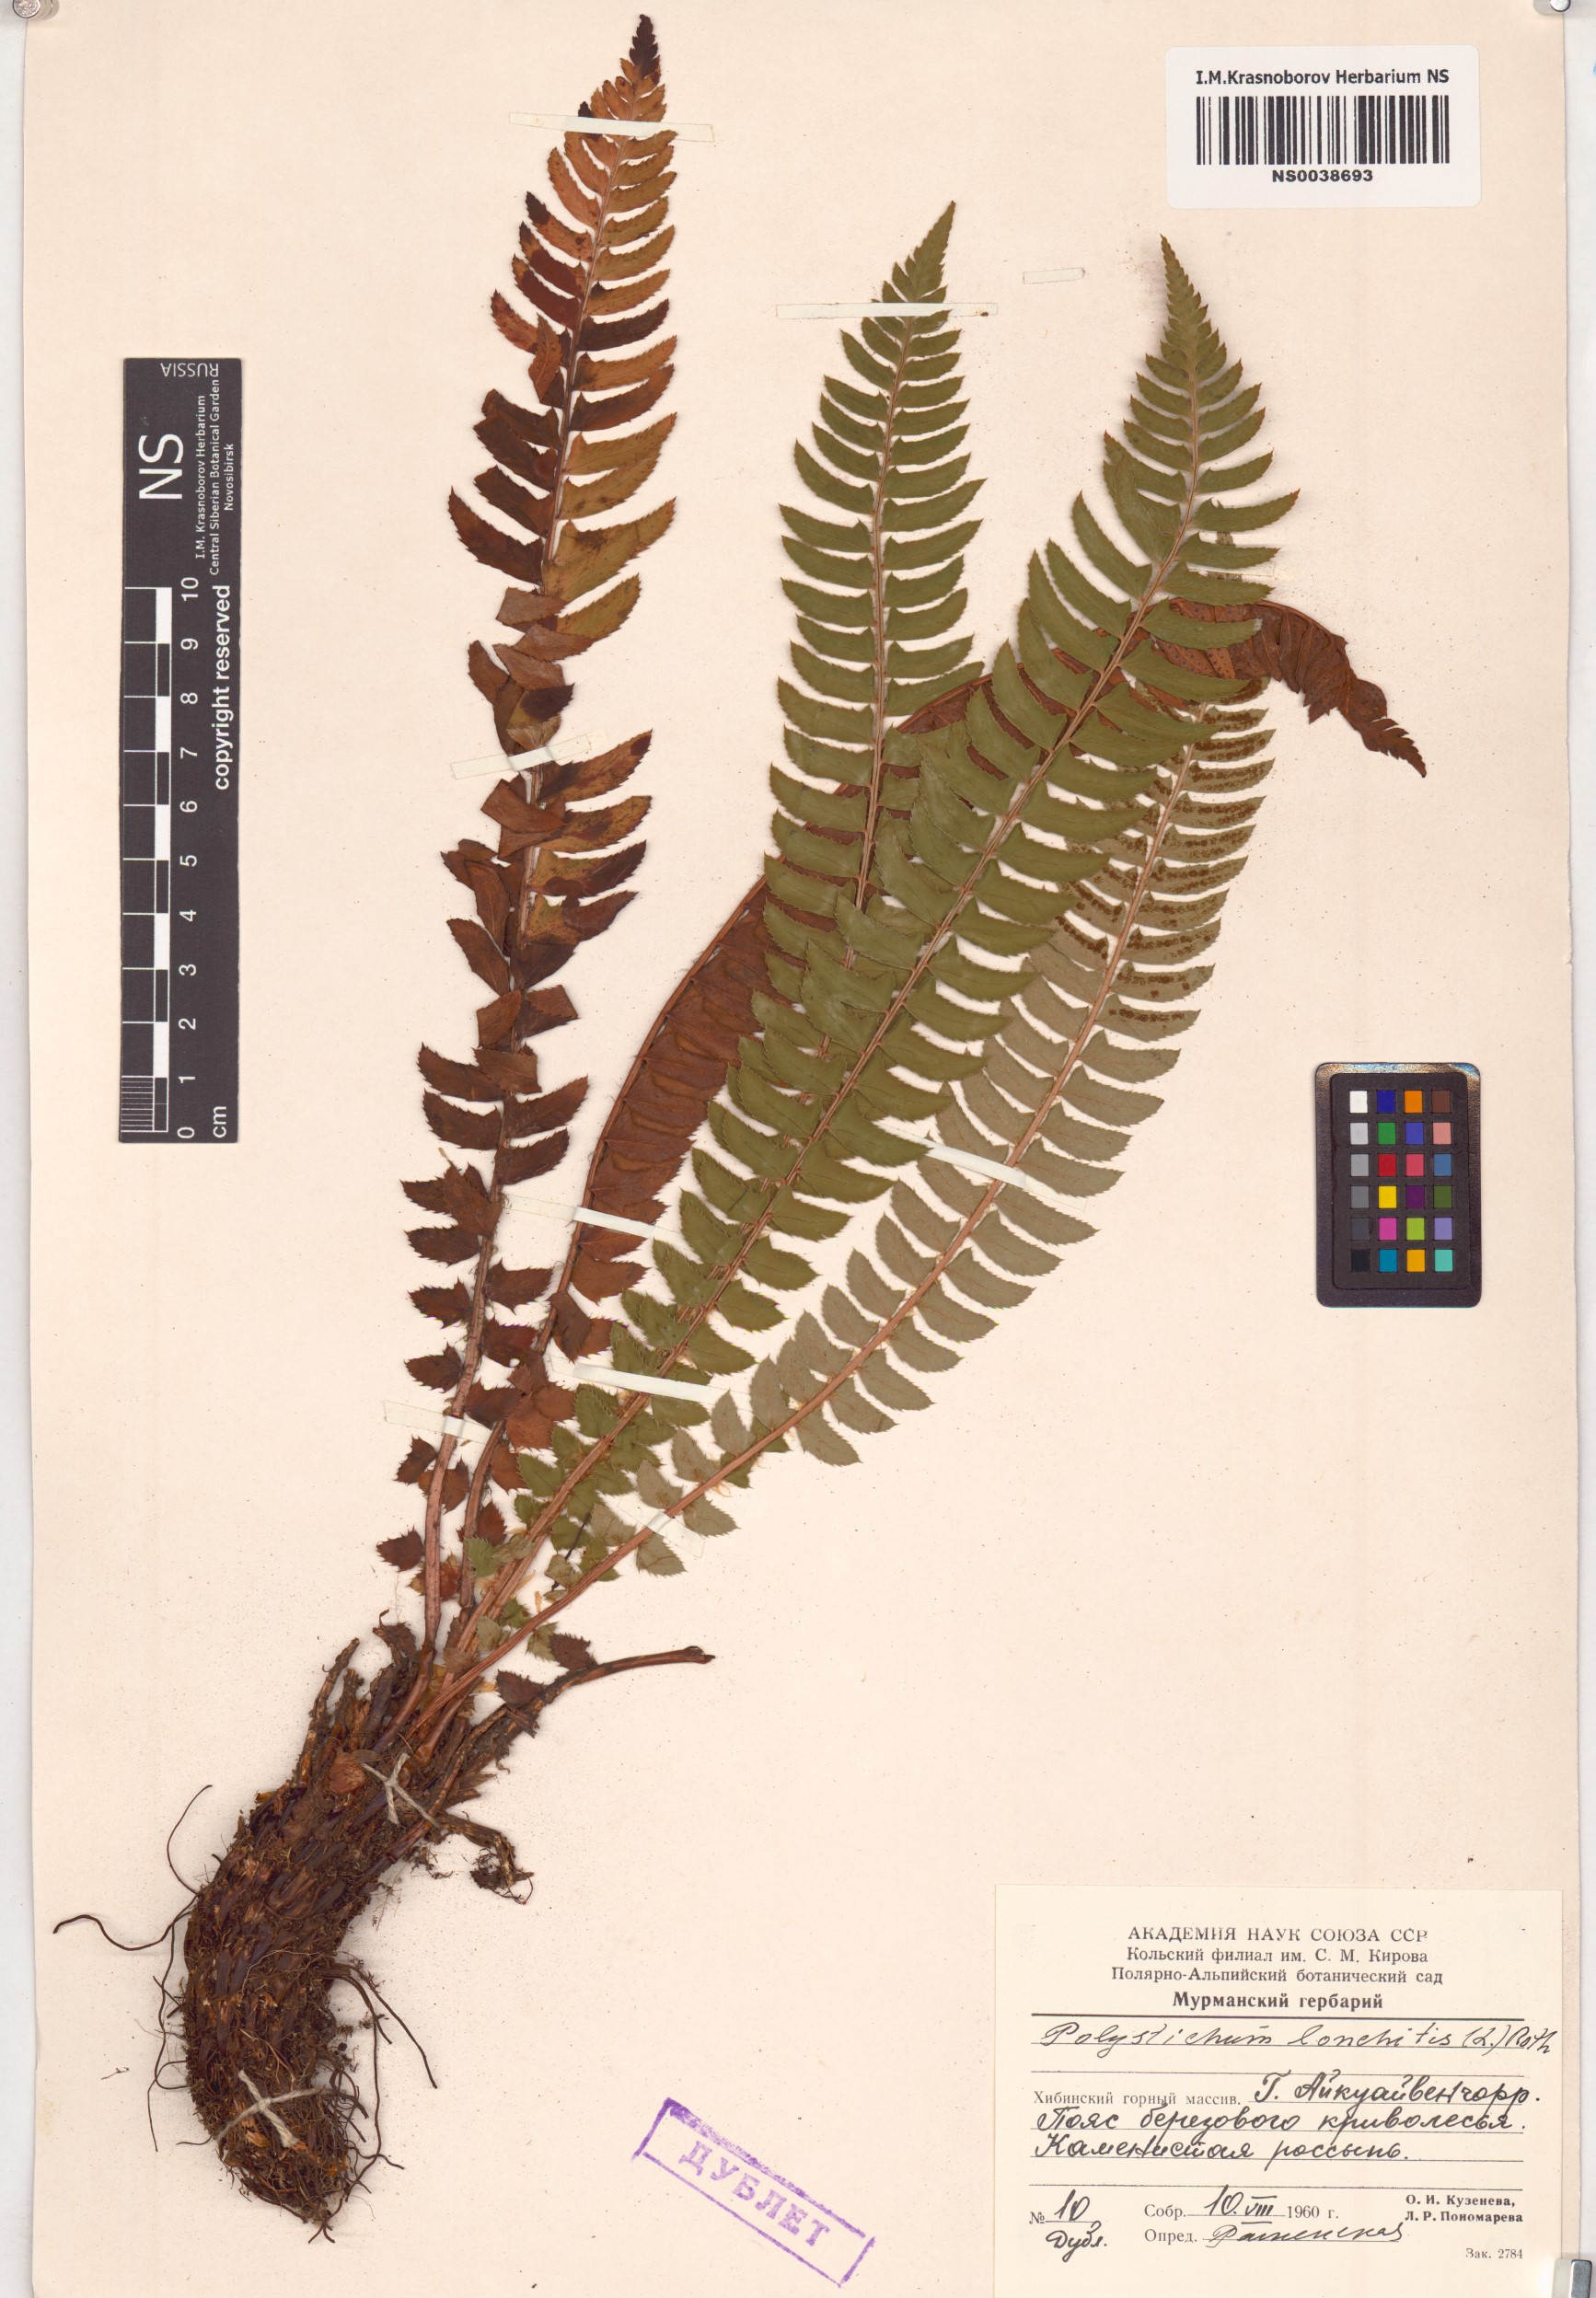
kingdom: Plantae
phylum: Tracheophyta
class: Polypodiopsida
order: Polypodiales
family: Dryopteridaceae
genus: Polystichum
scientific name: Polystichum lonchitis
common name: Holly fern
